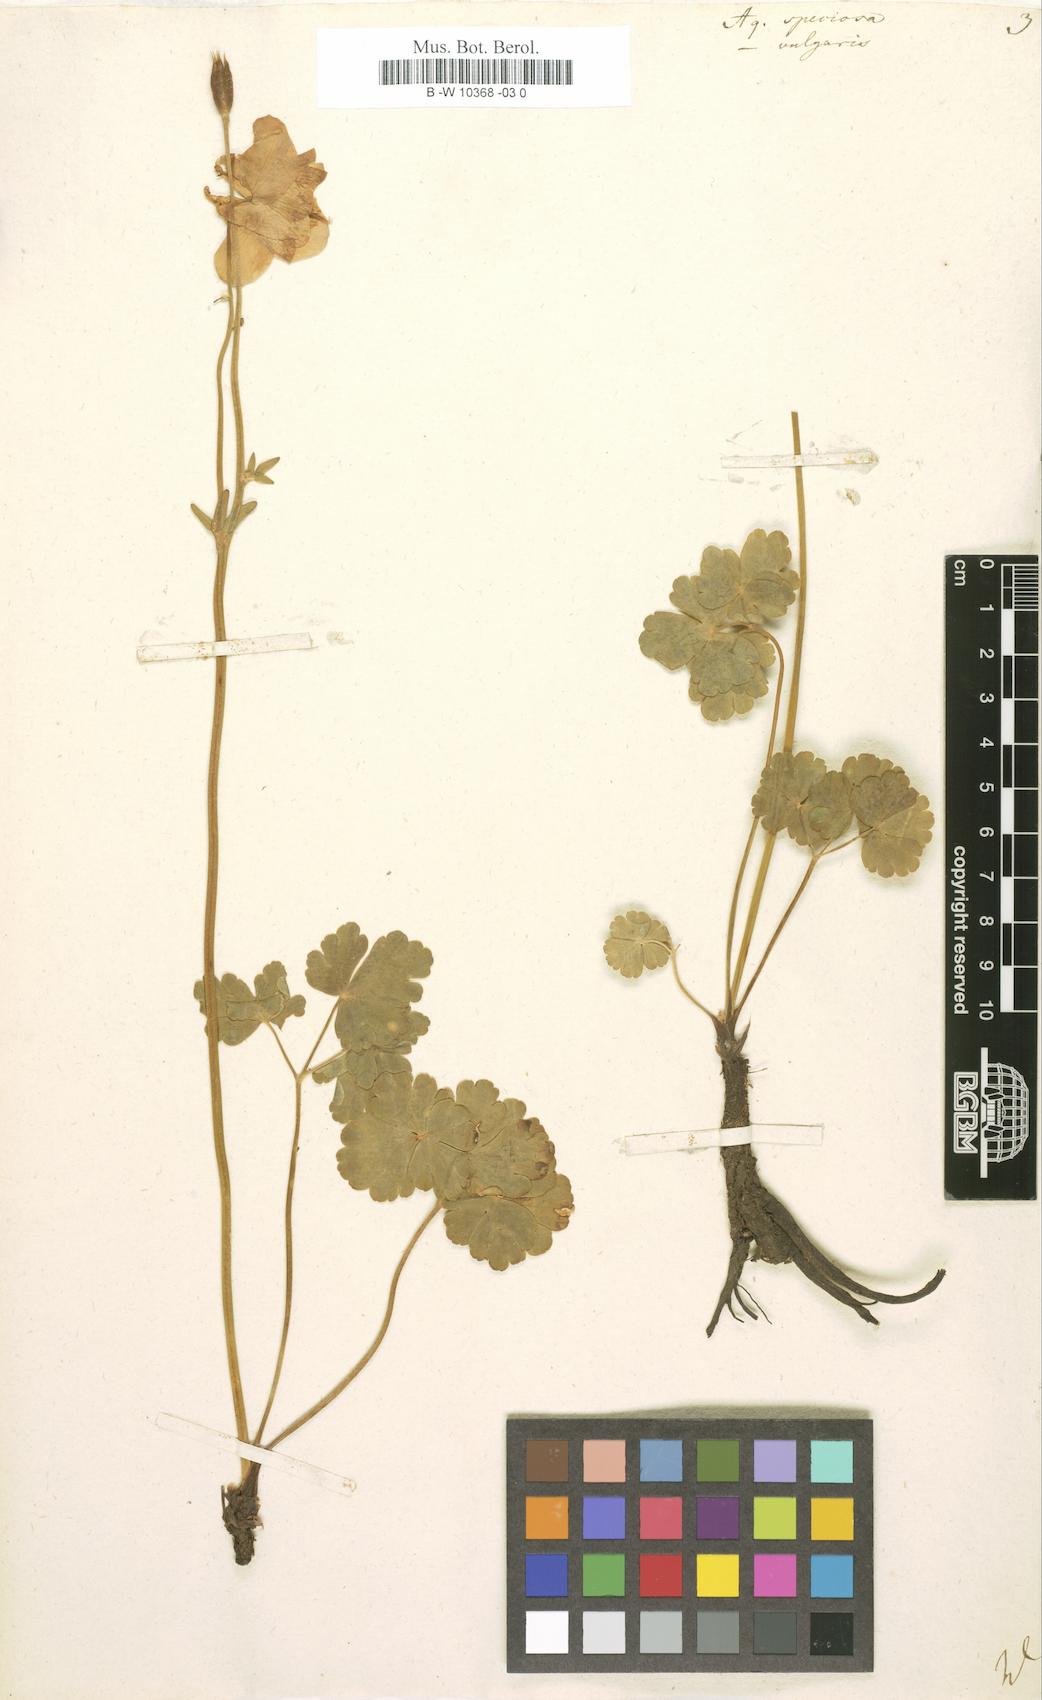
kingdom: Plantae
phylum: Tracheophyta
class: Magnoliopsida
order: Ranunculales
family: Ranunculaceae
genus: Aquilegia
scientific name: Aquilegia
